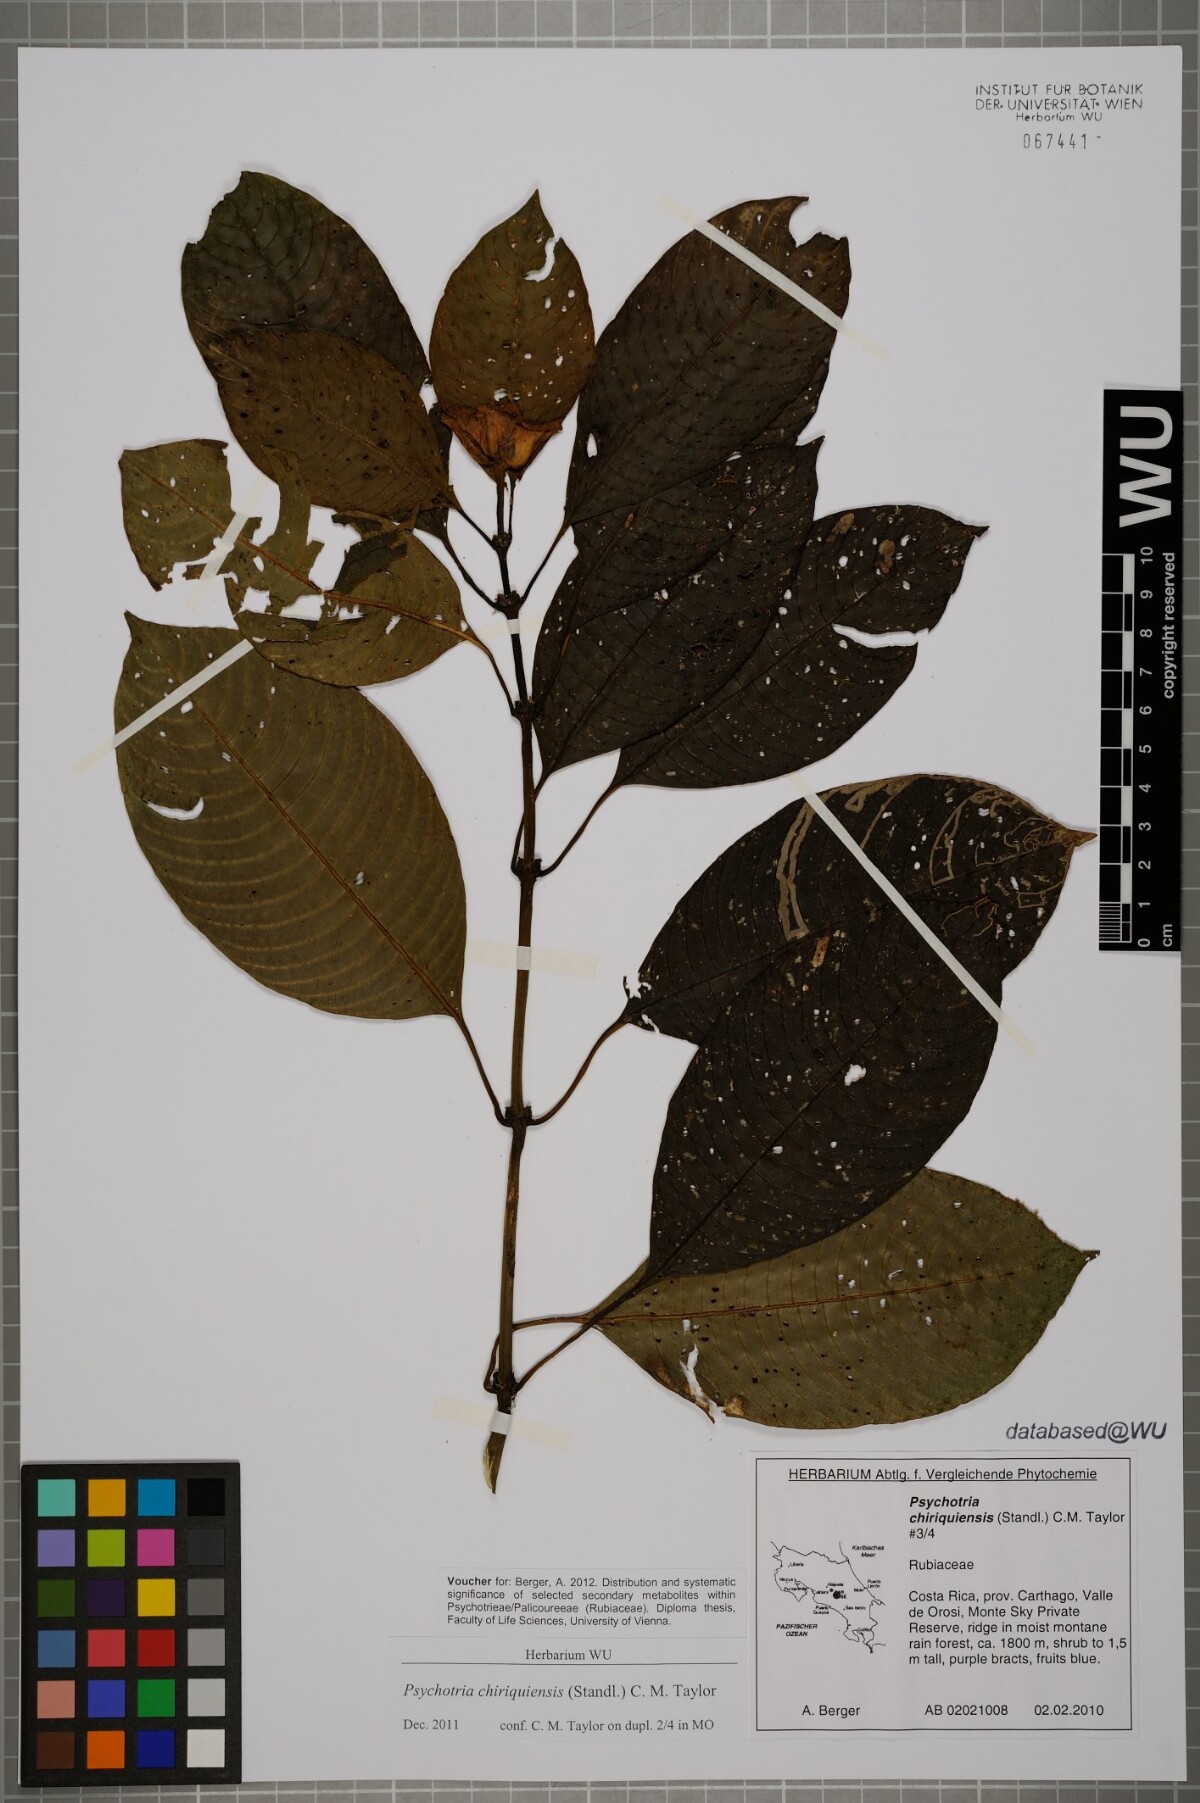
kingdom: Plantae
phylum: Tracheophyta
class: Magnoliopsida
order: Gentianales
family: Rubiaceae
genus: Palicourea
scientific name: Palicourea chiriquiensis
